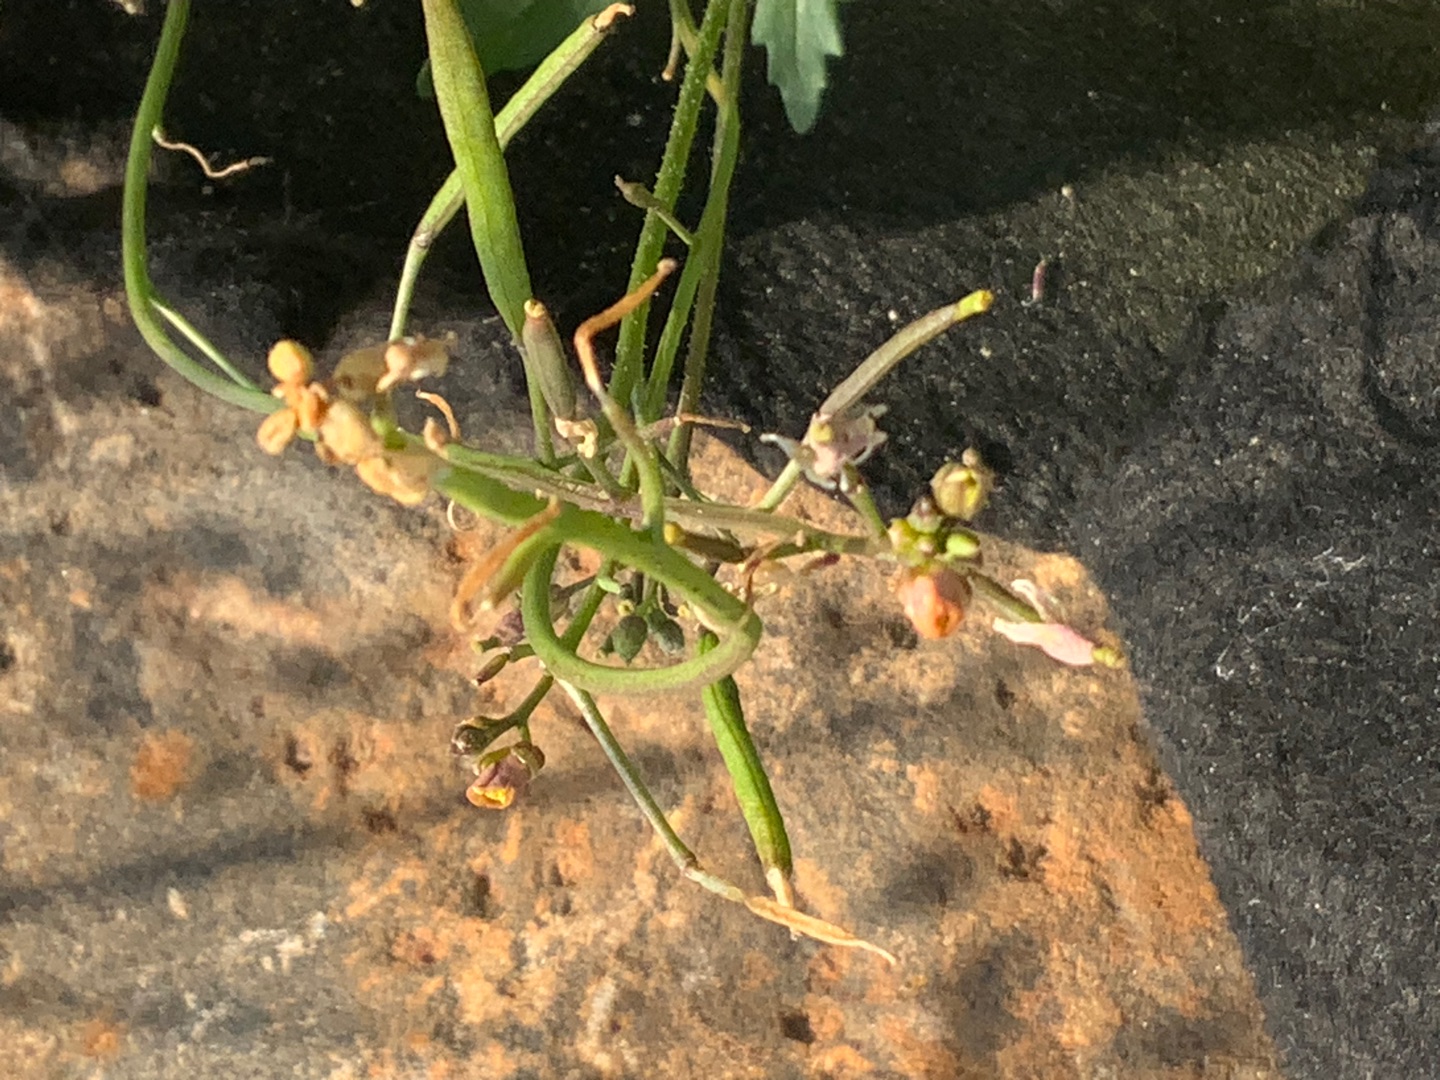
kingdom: Plantae
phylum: Tracheophyta
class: Magnoliopsida
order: Brassicales
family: Brassicaceae
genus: Diplotaxis
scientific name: Diplotaxis muralis
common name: Mursennep
